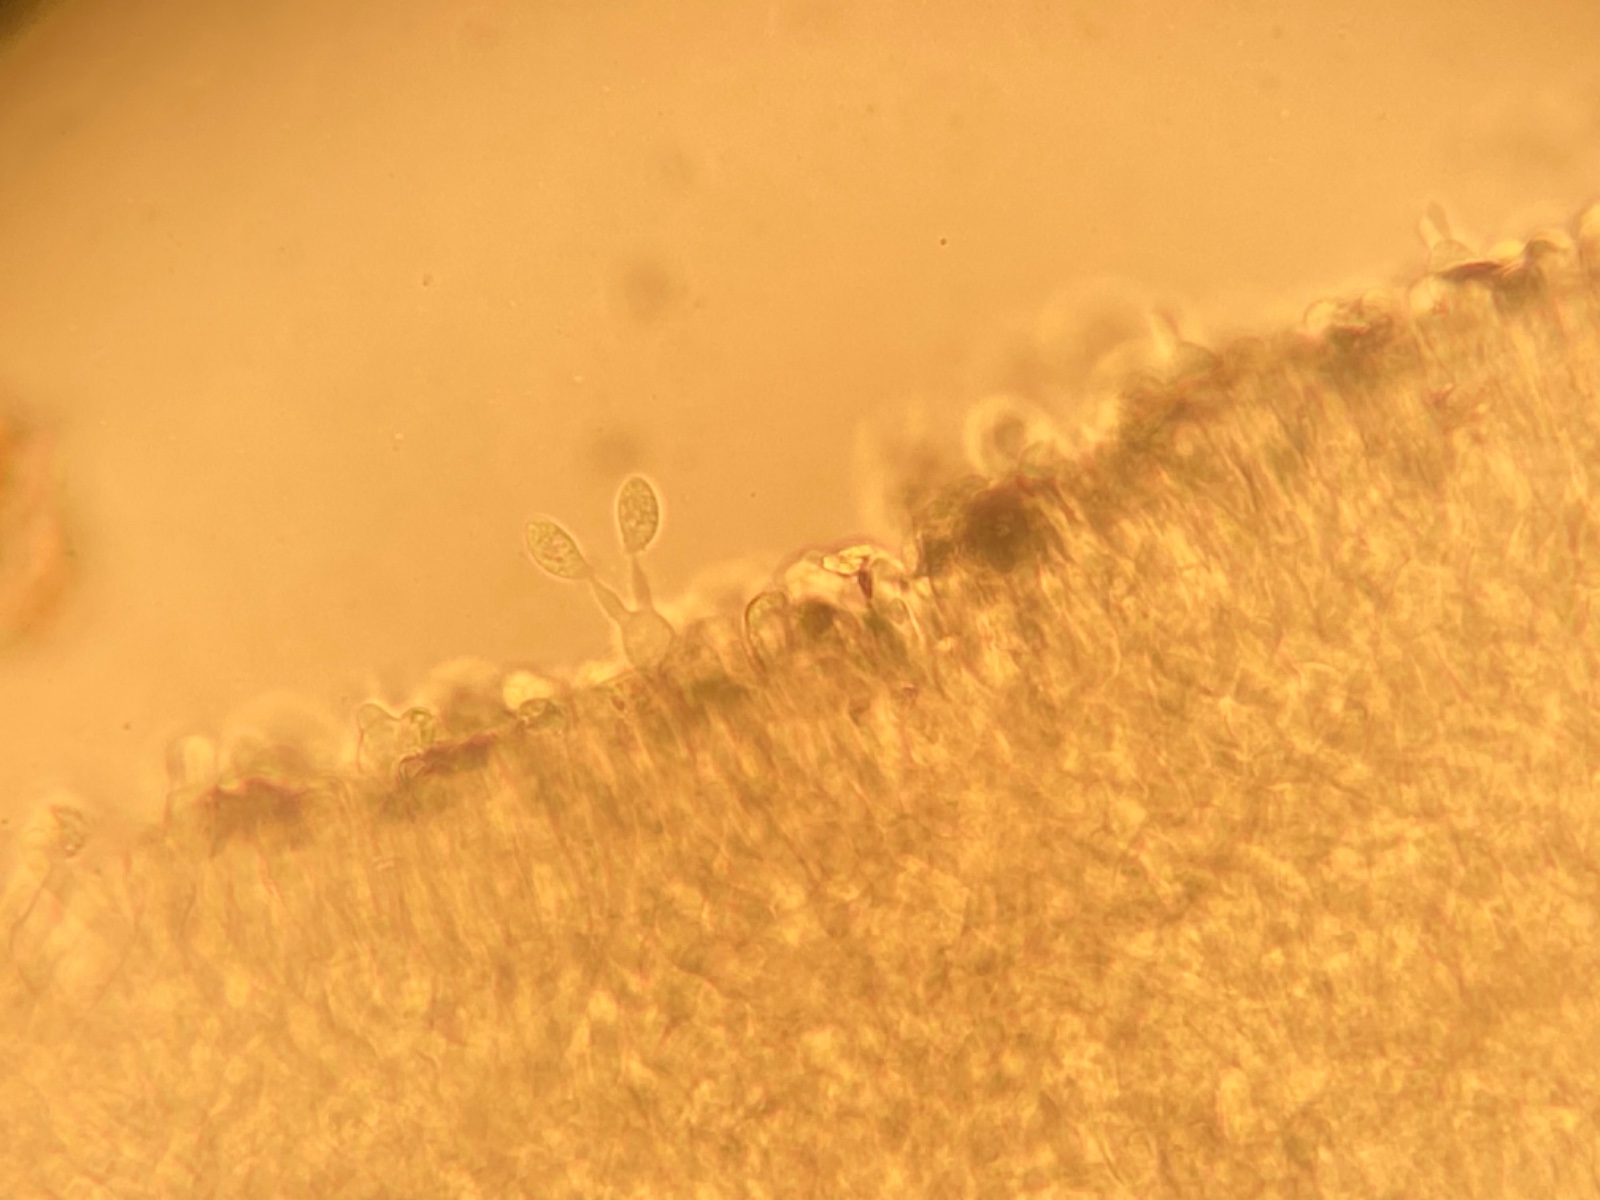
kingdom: Fungi
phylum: Basidiomycota
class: Agaricomycetes
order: Agaricales
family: Hymenogastraceae
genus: Galerina
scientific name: Galerina
